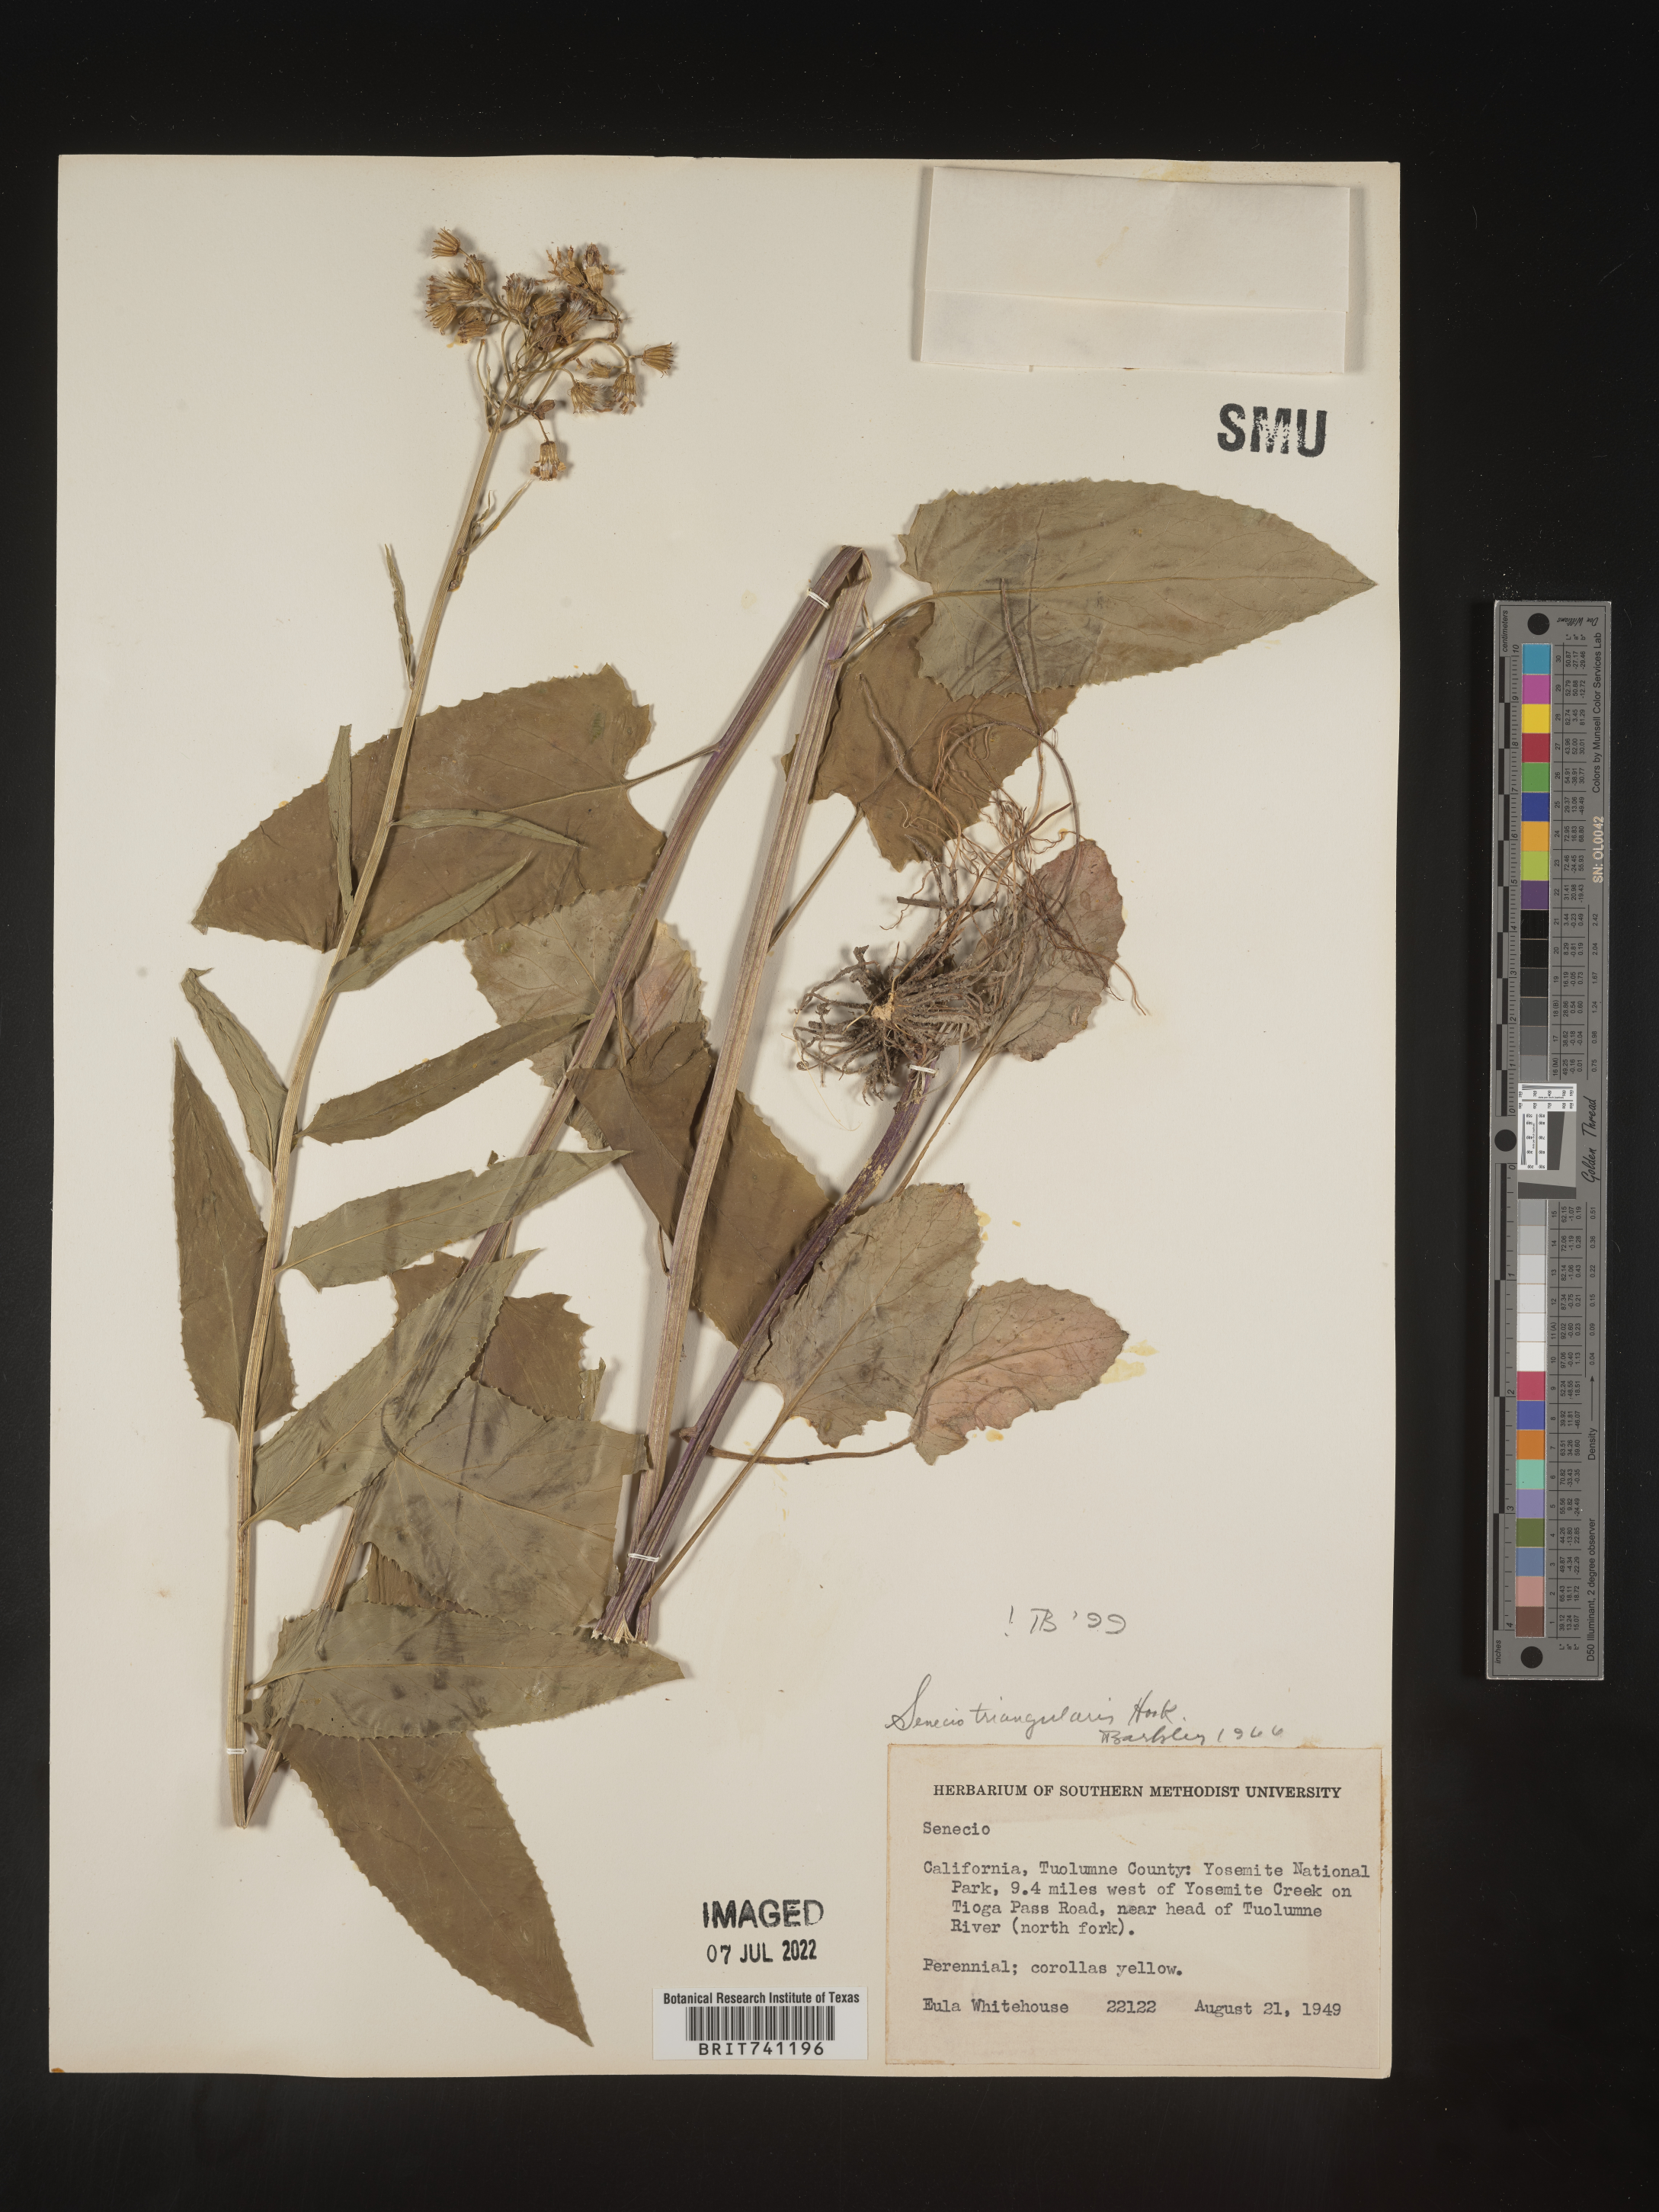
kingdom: Plantae
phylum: Tracheophyta
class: Magnoliopsida
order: Asterales
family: Asteraceae
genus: Senecio
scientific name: Senecio triangularis
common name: Arrowleaf butterweed
